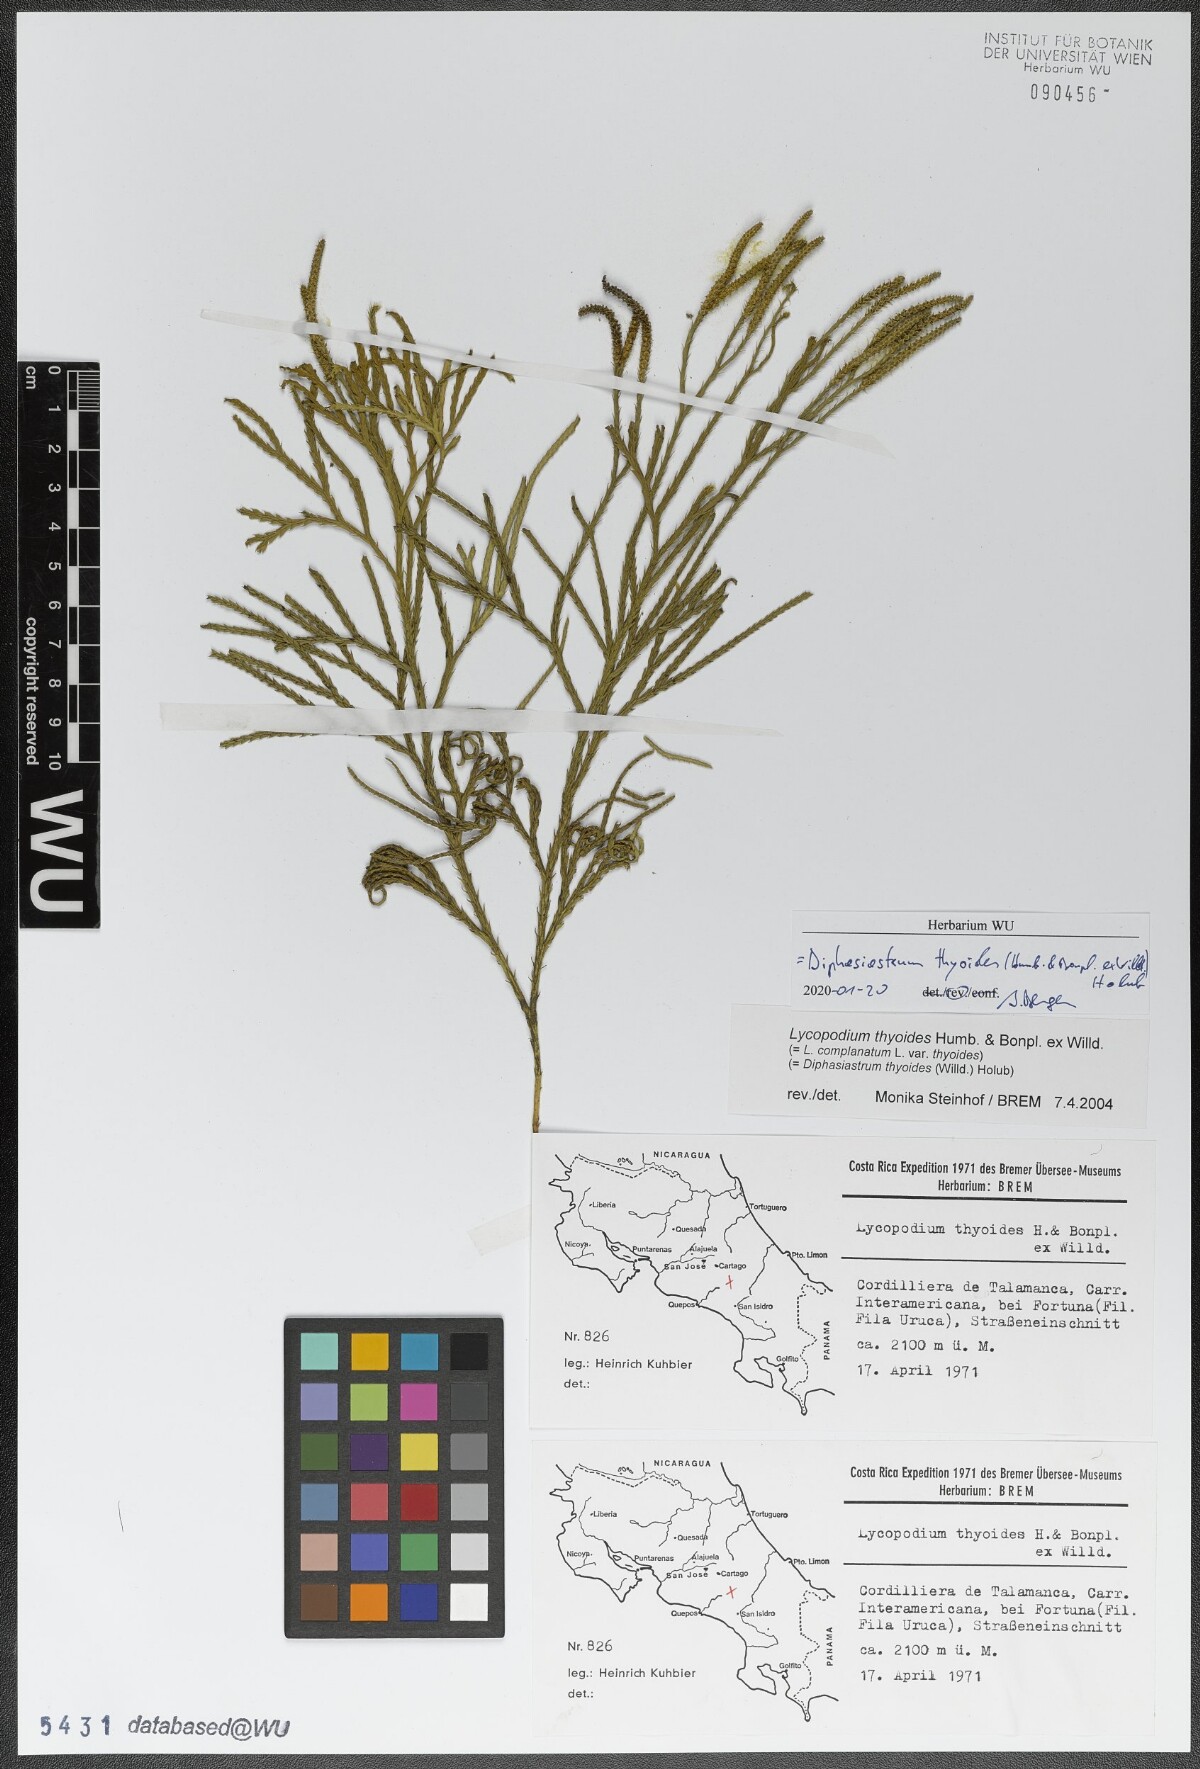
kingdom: Plantae
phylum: Tracheophyta
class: Lycopodiopsida
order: Lycopodiales
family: Lycopodiaceae
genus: Diphasiastrum
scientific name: Diphasiastrum thyoides
